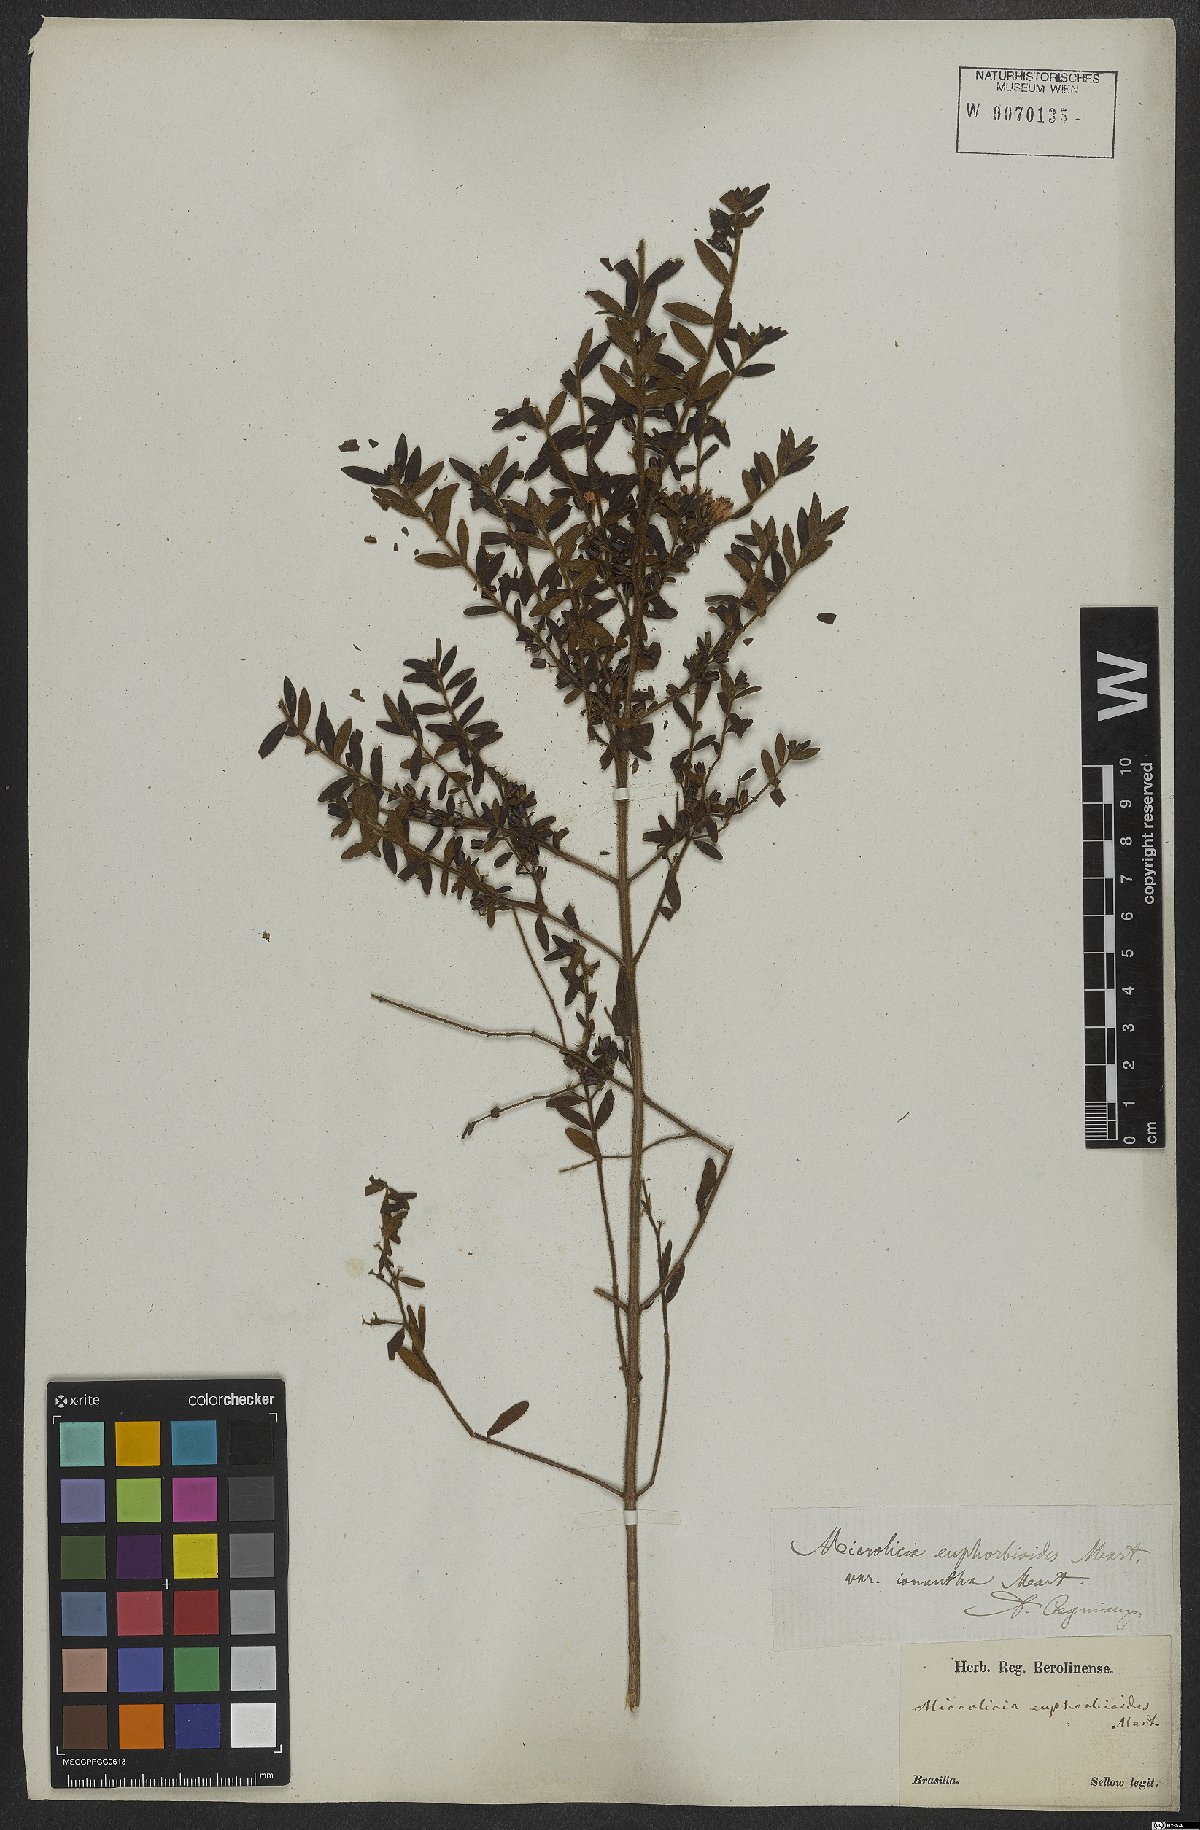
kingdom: Plantae
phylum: Tracheophyta
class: Magnoliopsida
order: Myrtales
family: Melastomataceae
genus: Microlicia
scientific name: Microlicia euphorbioides
